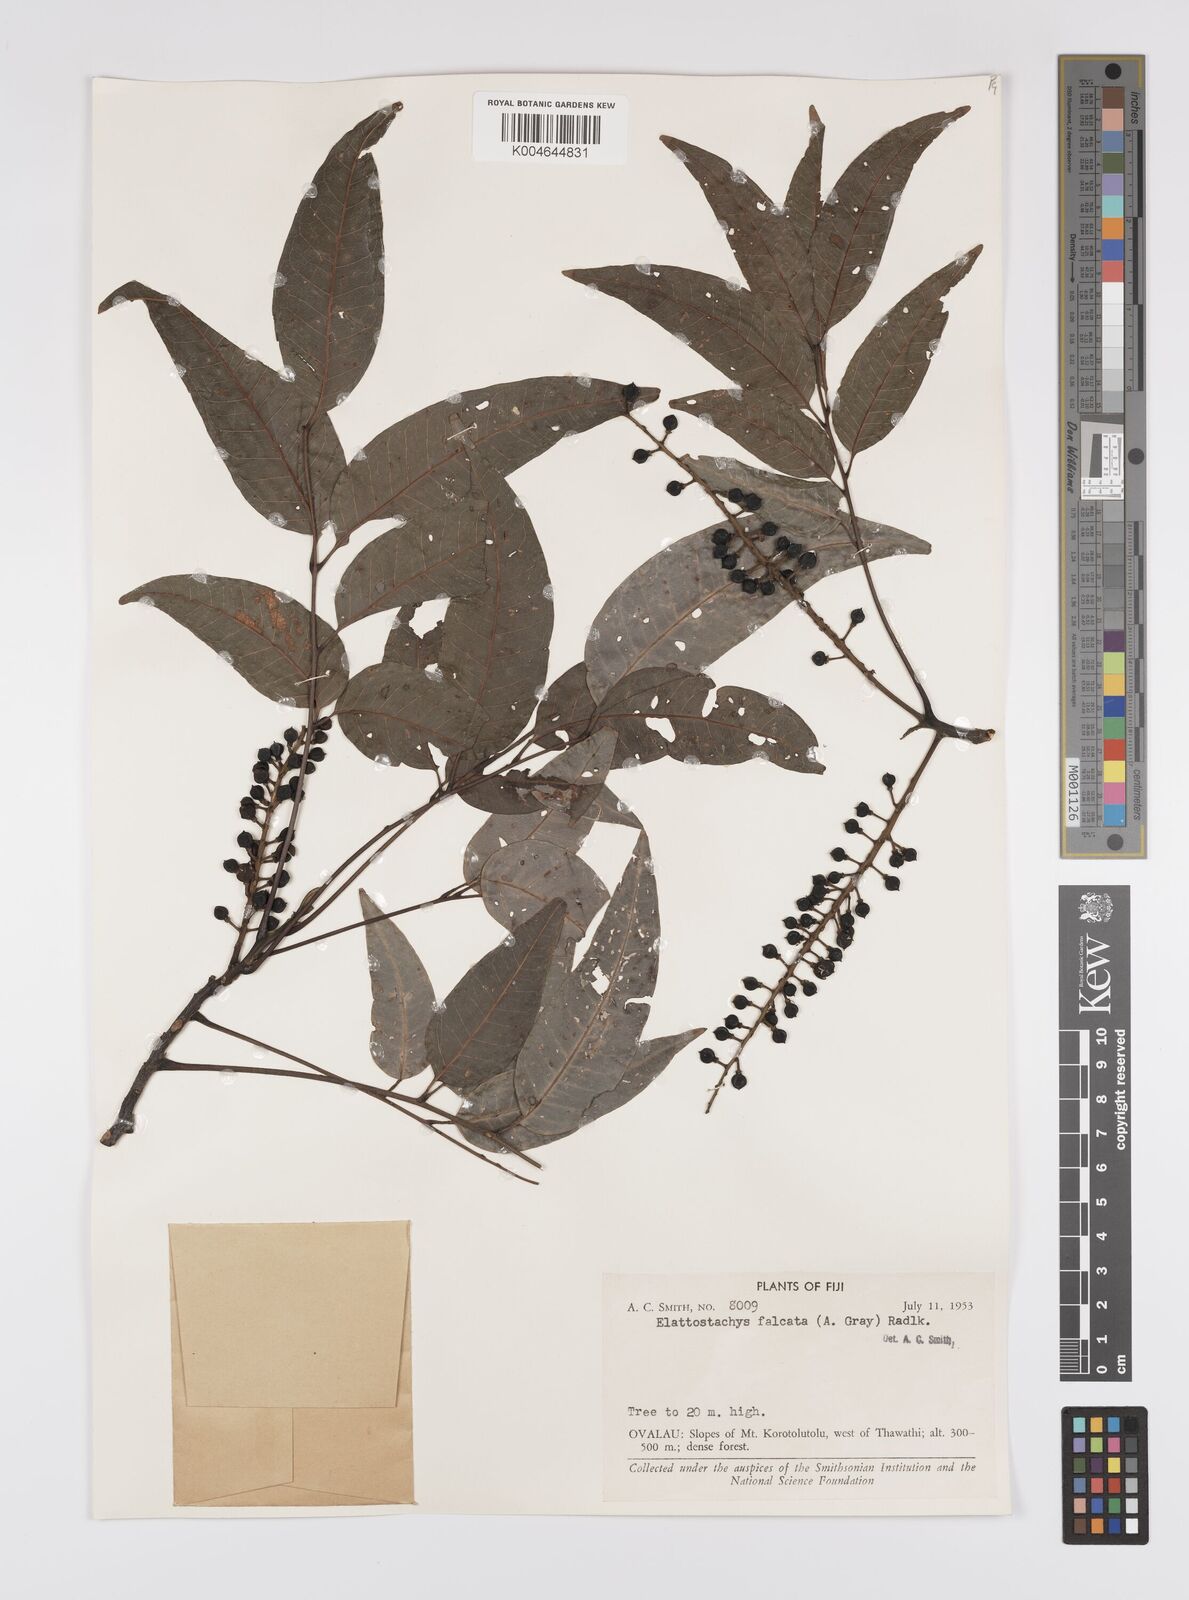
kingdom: Plantae
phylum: Tracheophyta
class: Magnoliopsida
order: Sapindales
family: Sapindaceae
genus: Elattostachys
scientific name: Elattostachys apetala
